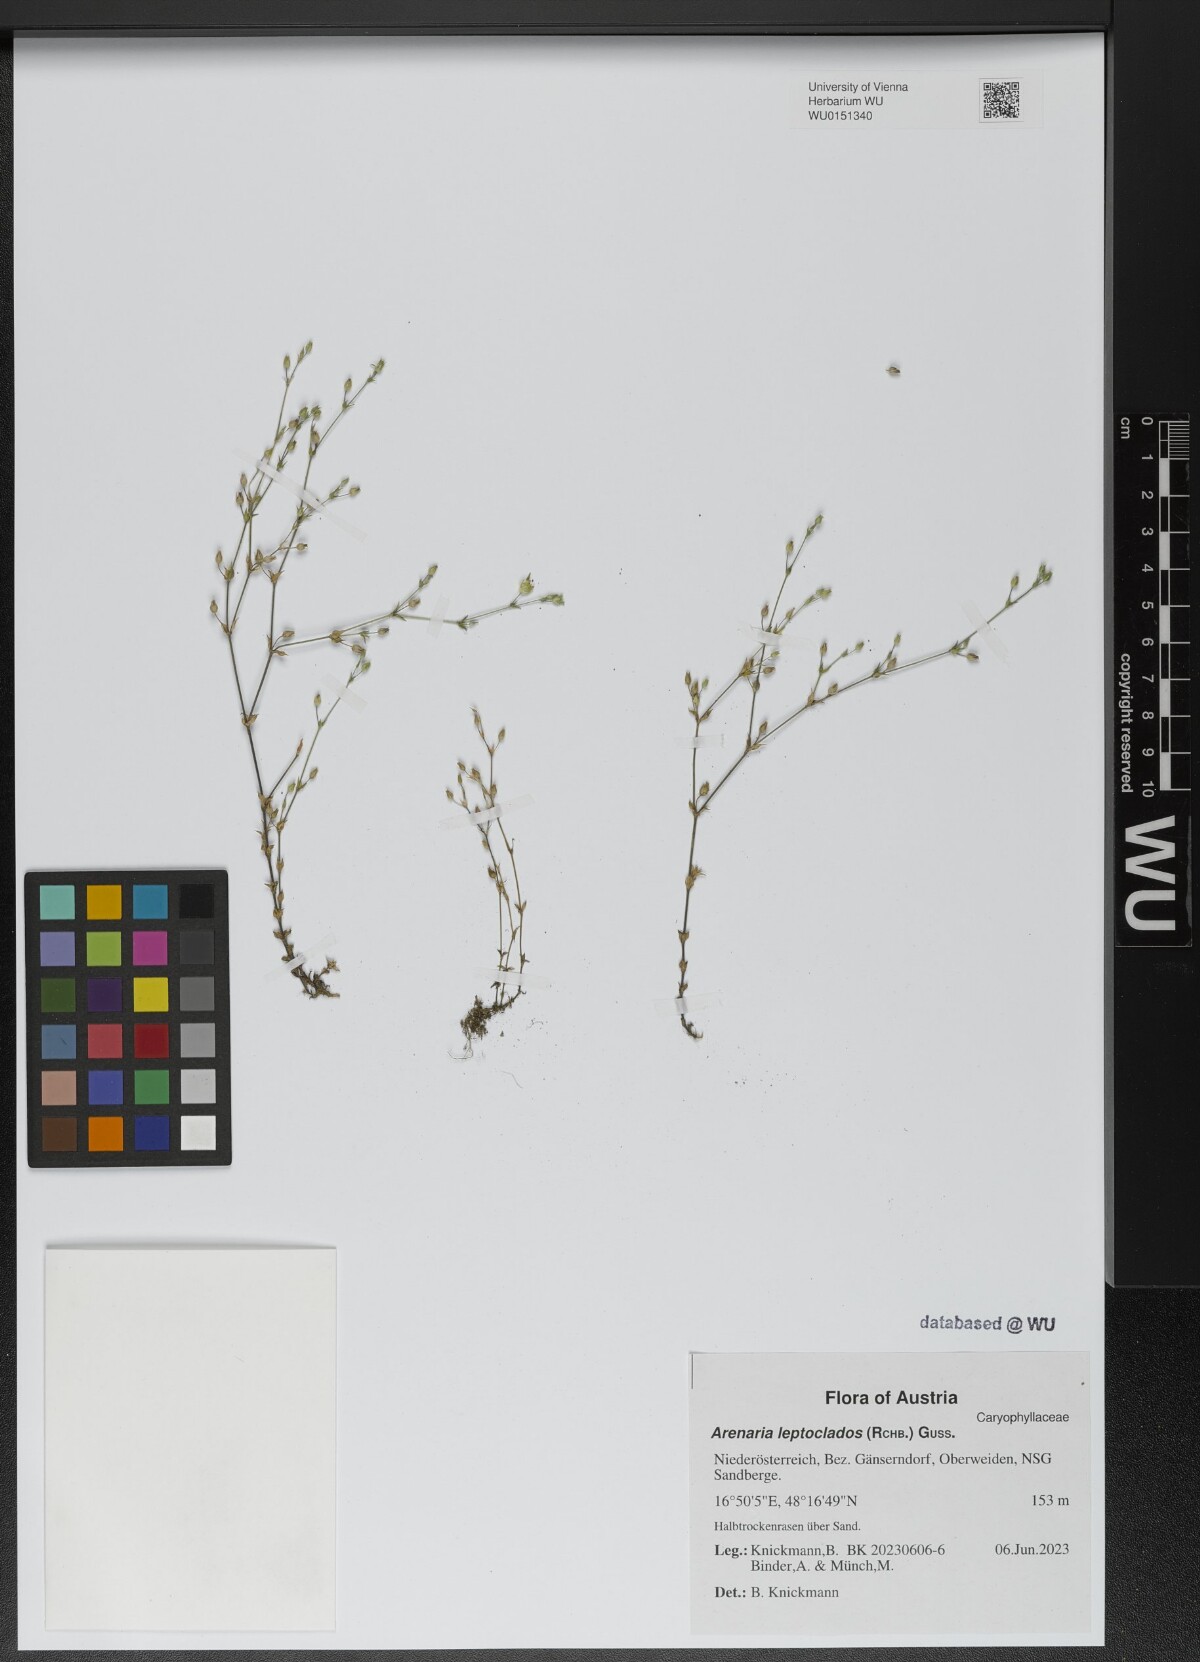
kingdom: Plantae
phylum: Tracheophyta
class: Magnoliopsida
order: Caryophyllales
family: Caryophyllaceae
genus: Arenaria
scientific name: Arenaria leptoclados
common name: Thyme-leaved sandwort
